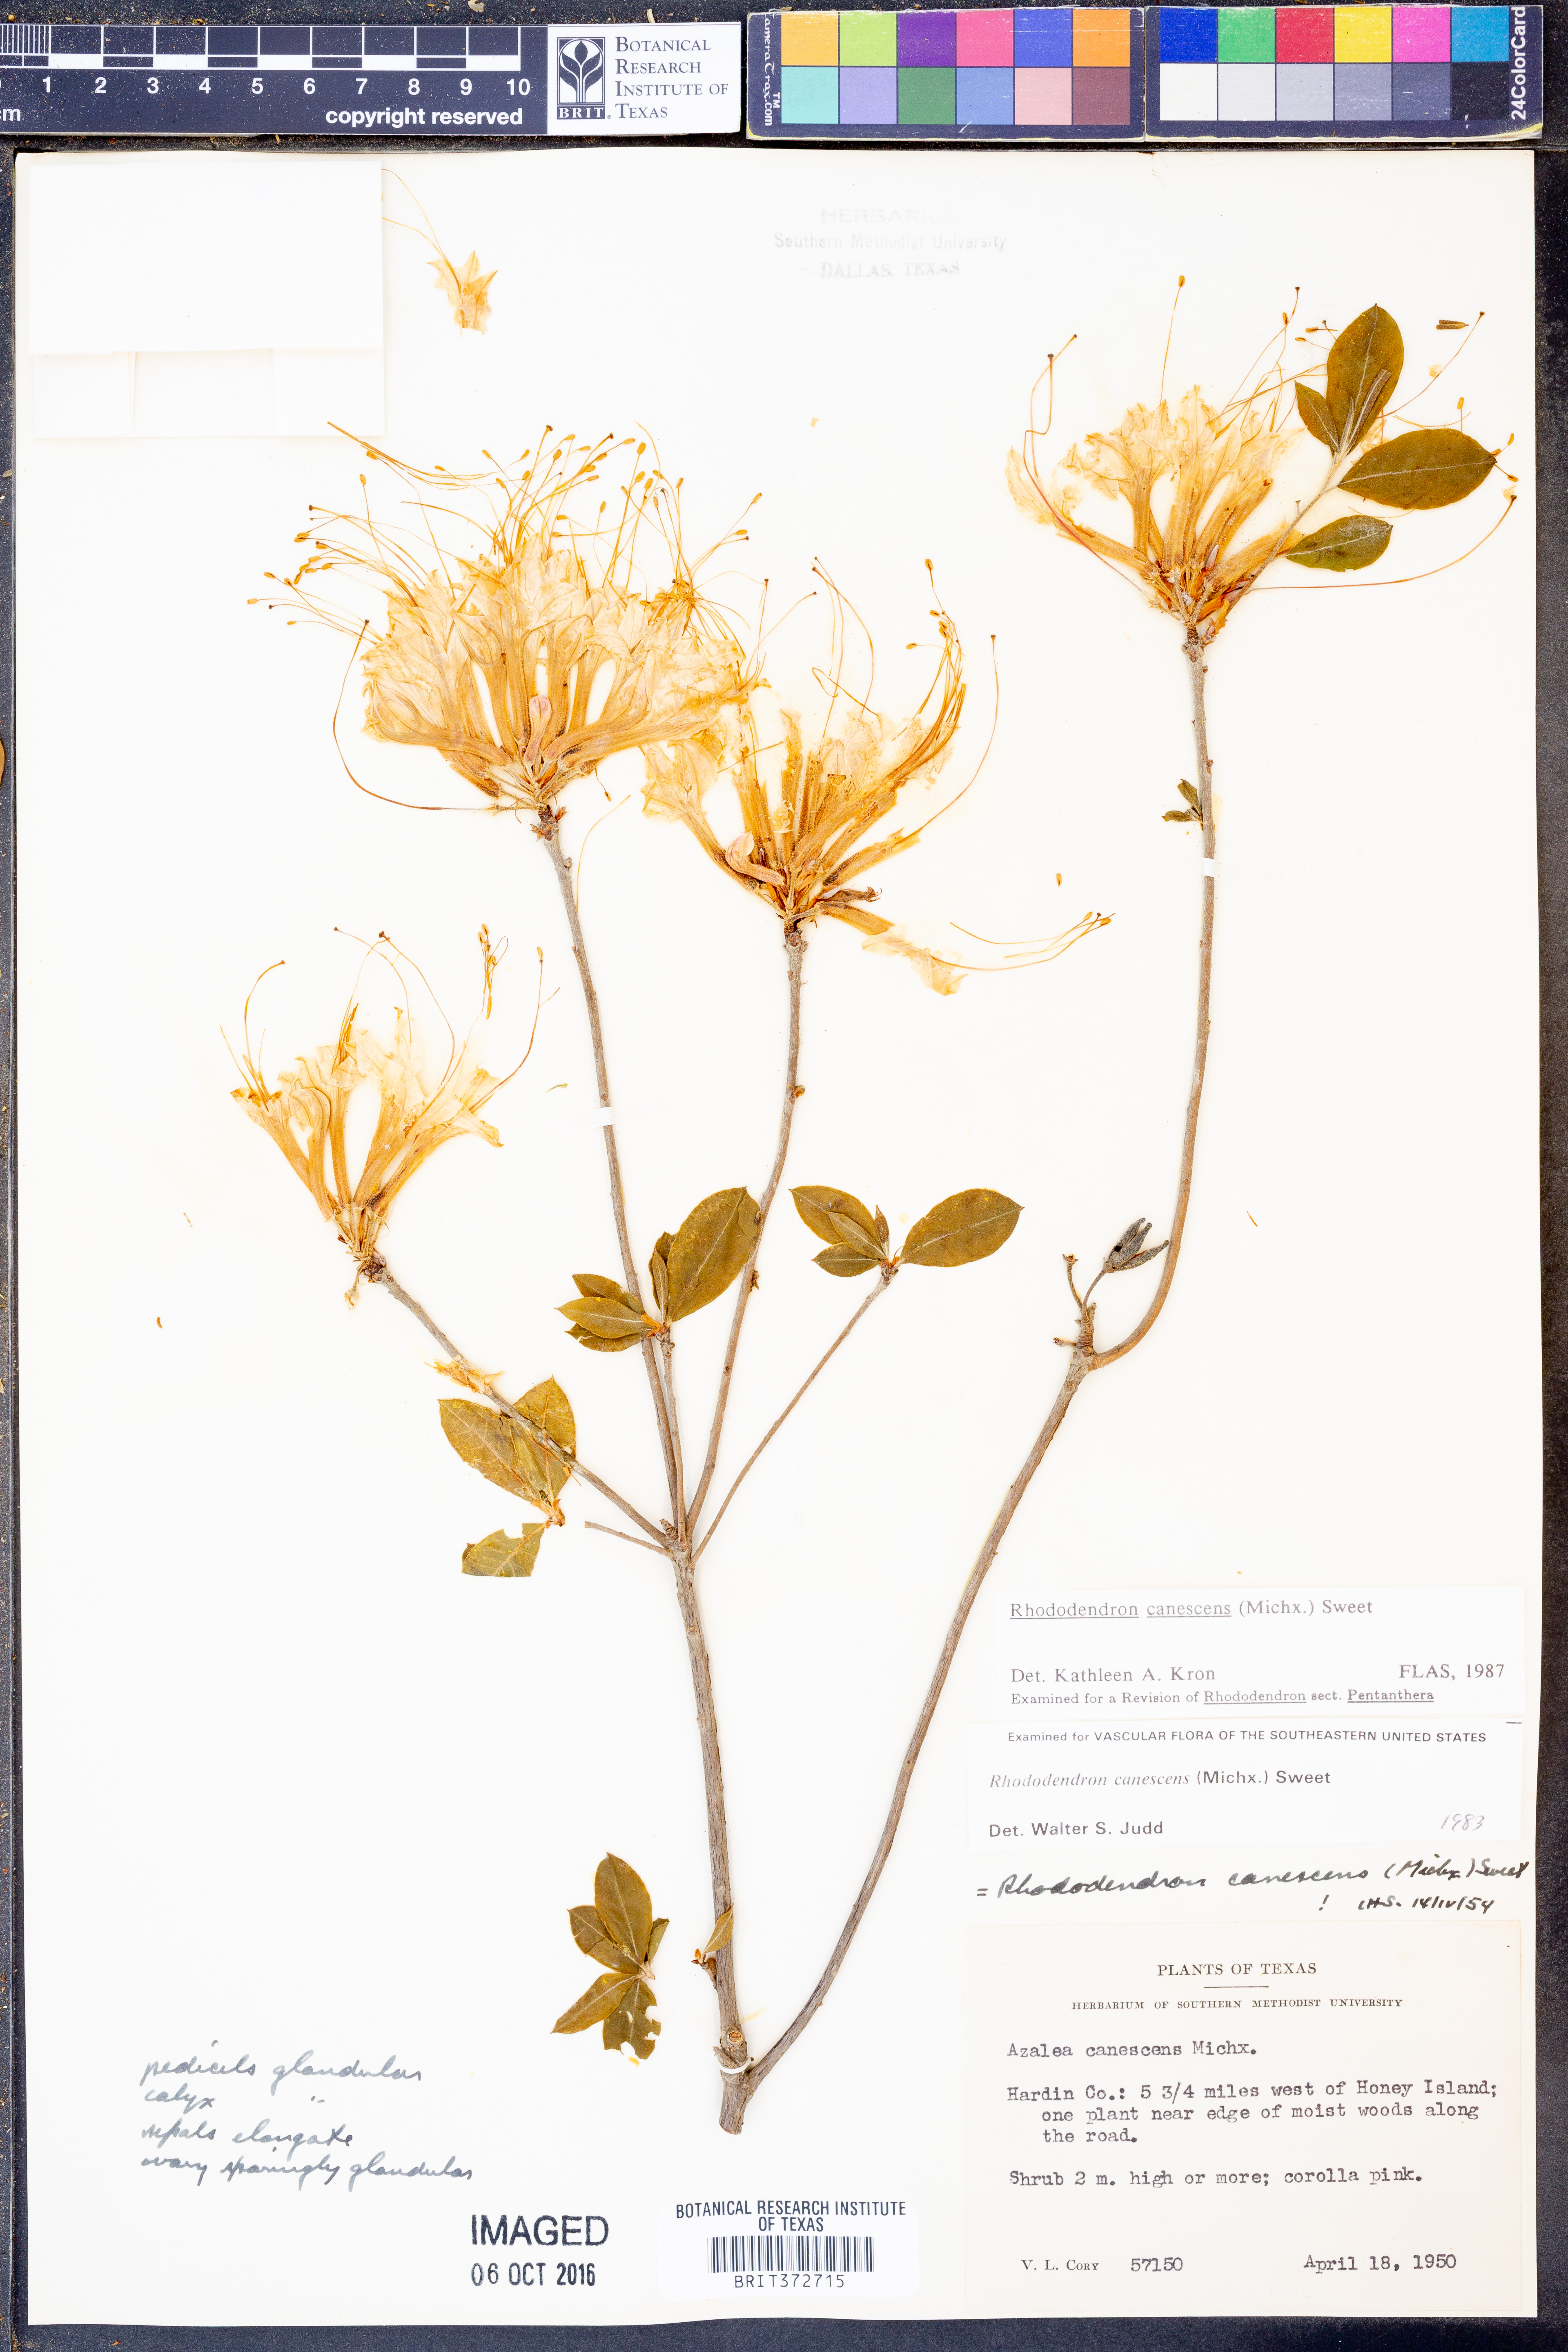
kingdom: Plantae
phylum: Tracheophyta
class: Magnoliopsida
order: Ericales
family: Ericaceae
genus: Rhododendron
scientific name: Rhododendron canescens
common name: Mountain azalea
